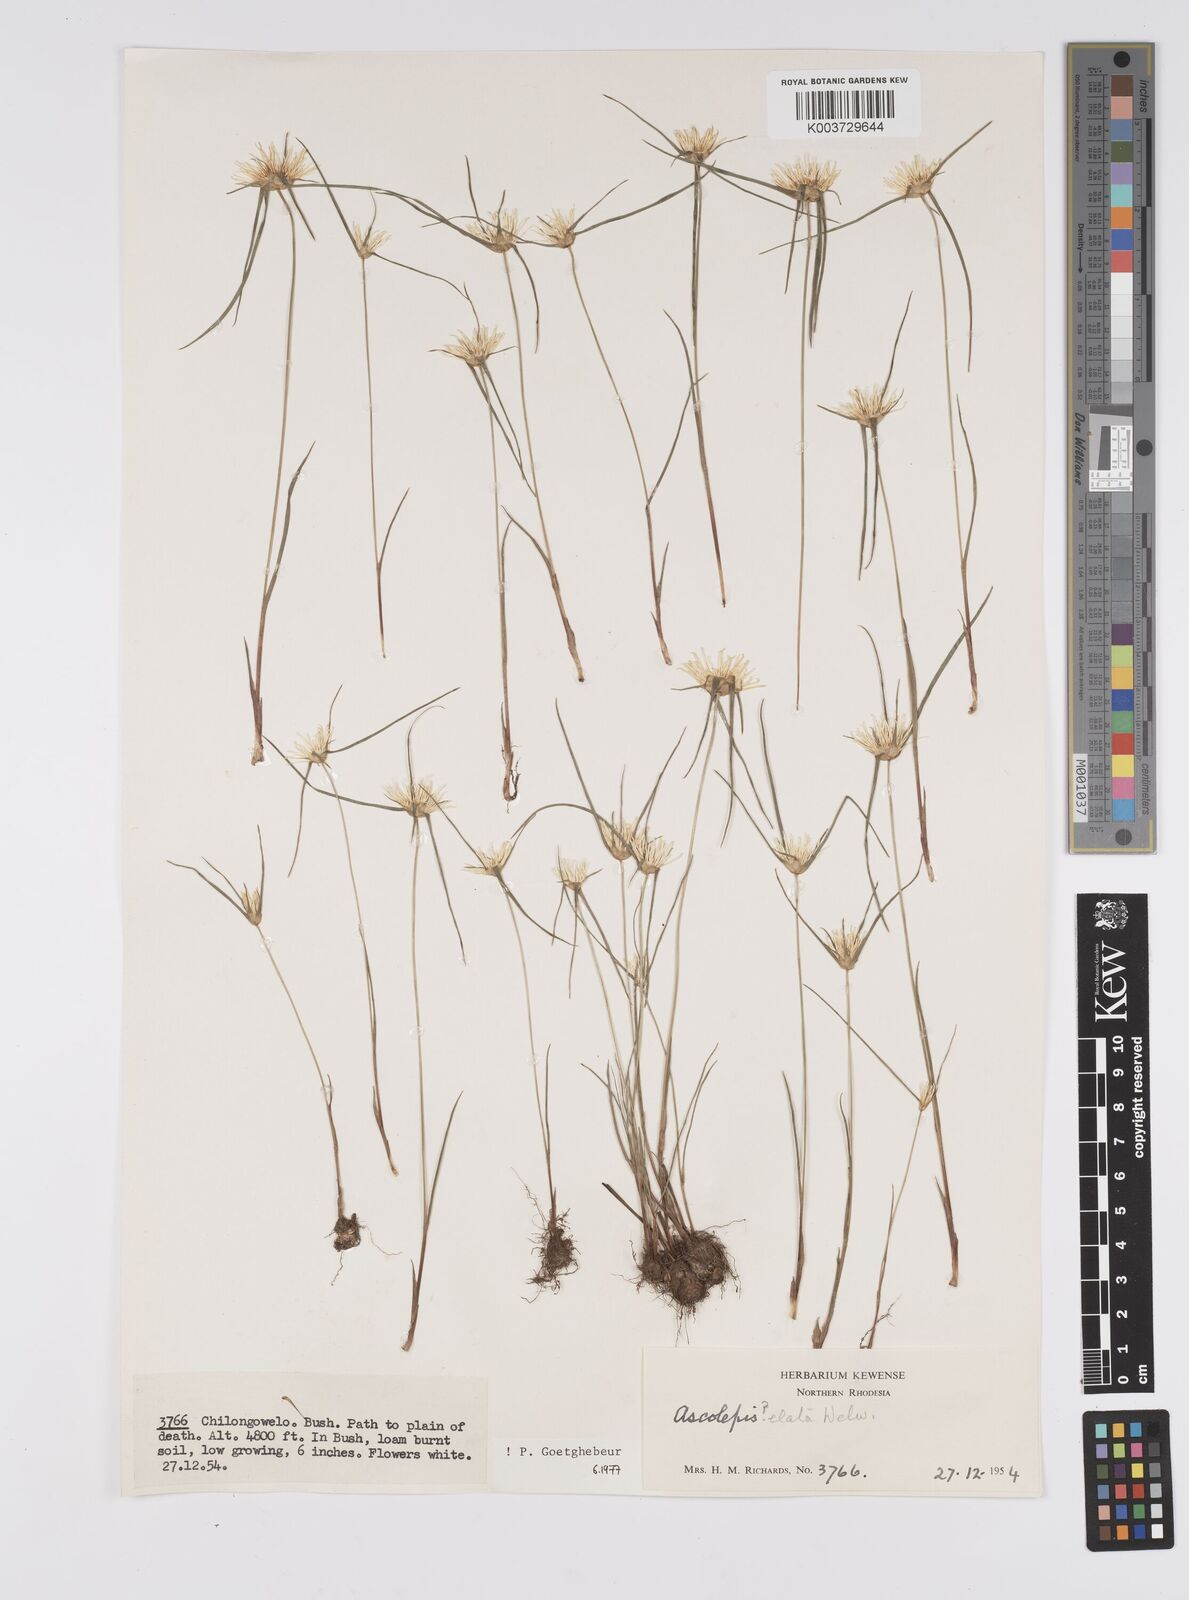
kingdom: Plantae
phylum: Tracheophyta
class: Liliopsida
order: Poales
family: Cyperaceae
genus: Cyperus
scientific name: Cyperus
